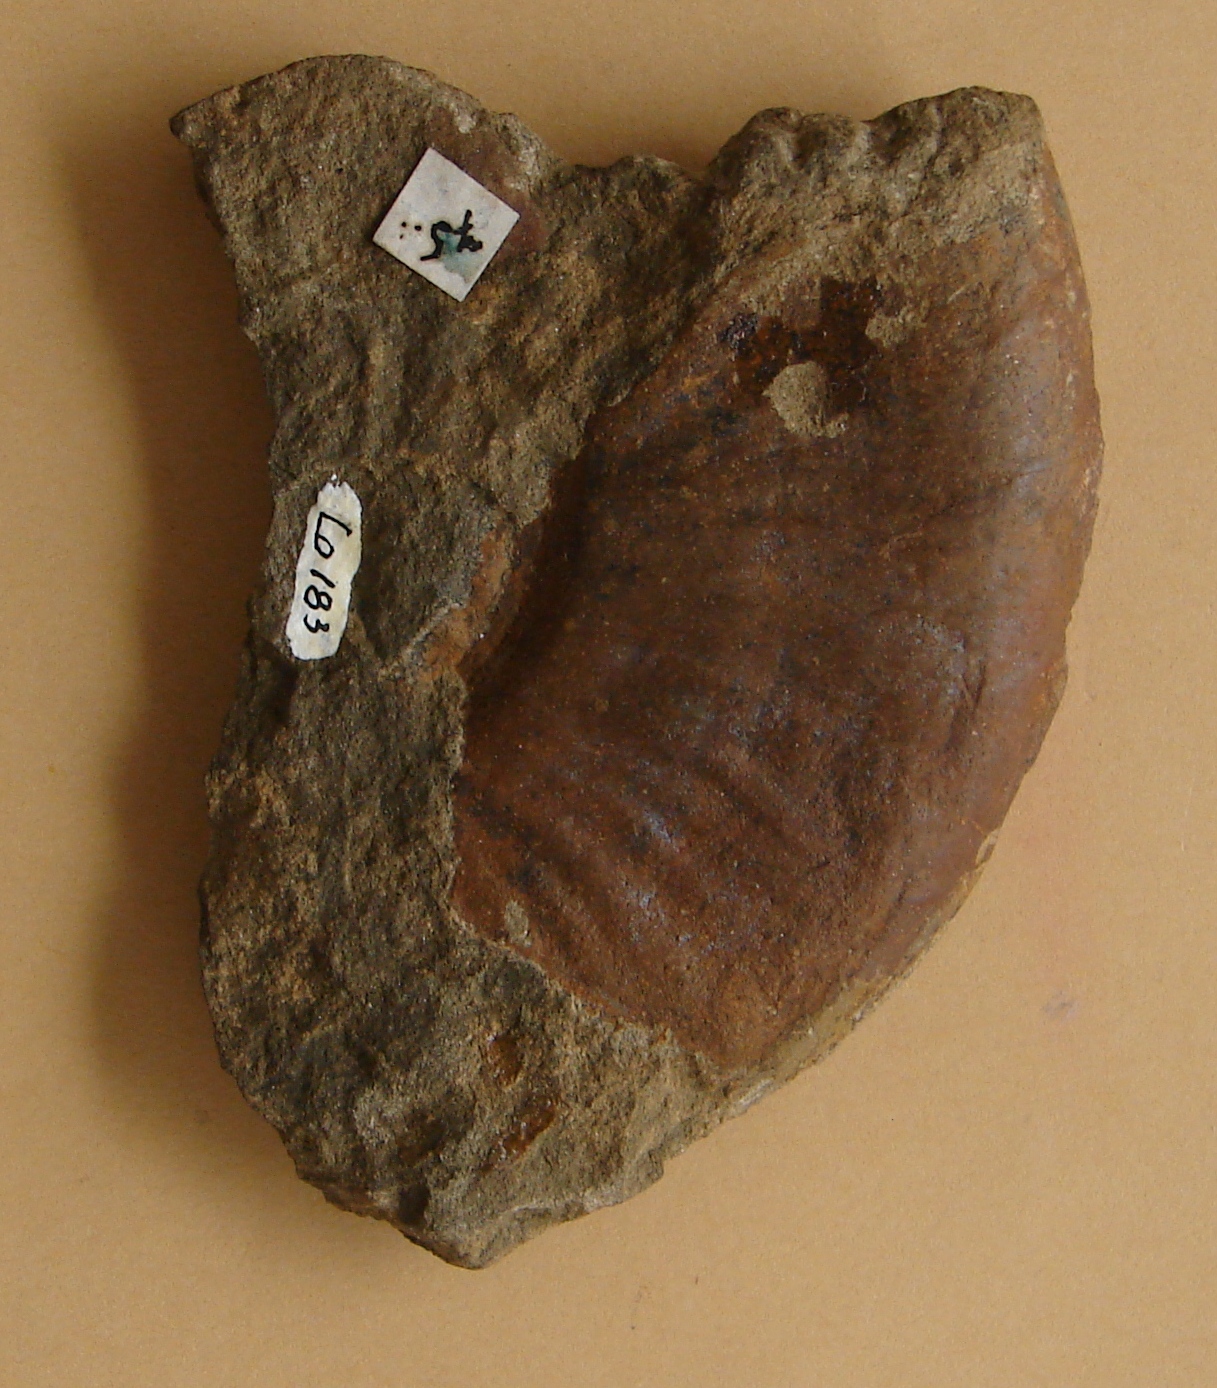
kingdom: Animalia
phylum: Mollusca
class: Cephalopoda
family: Hildoceratidae
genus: Harpoceras
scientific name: Harpoceras
